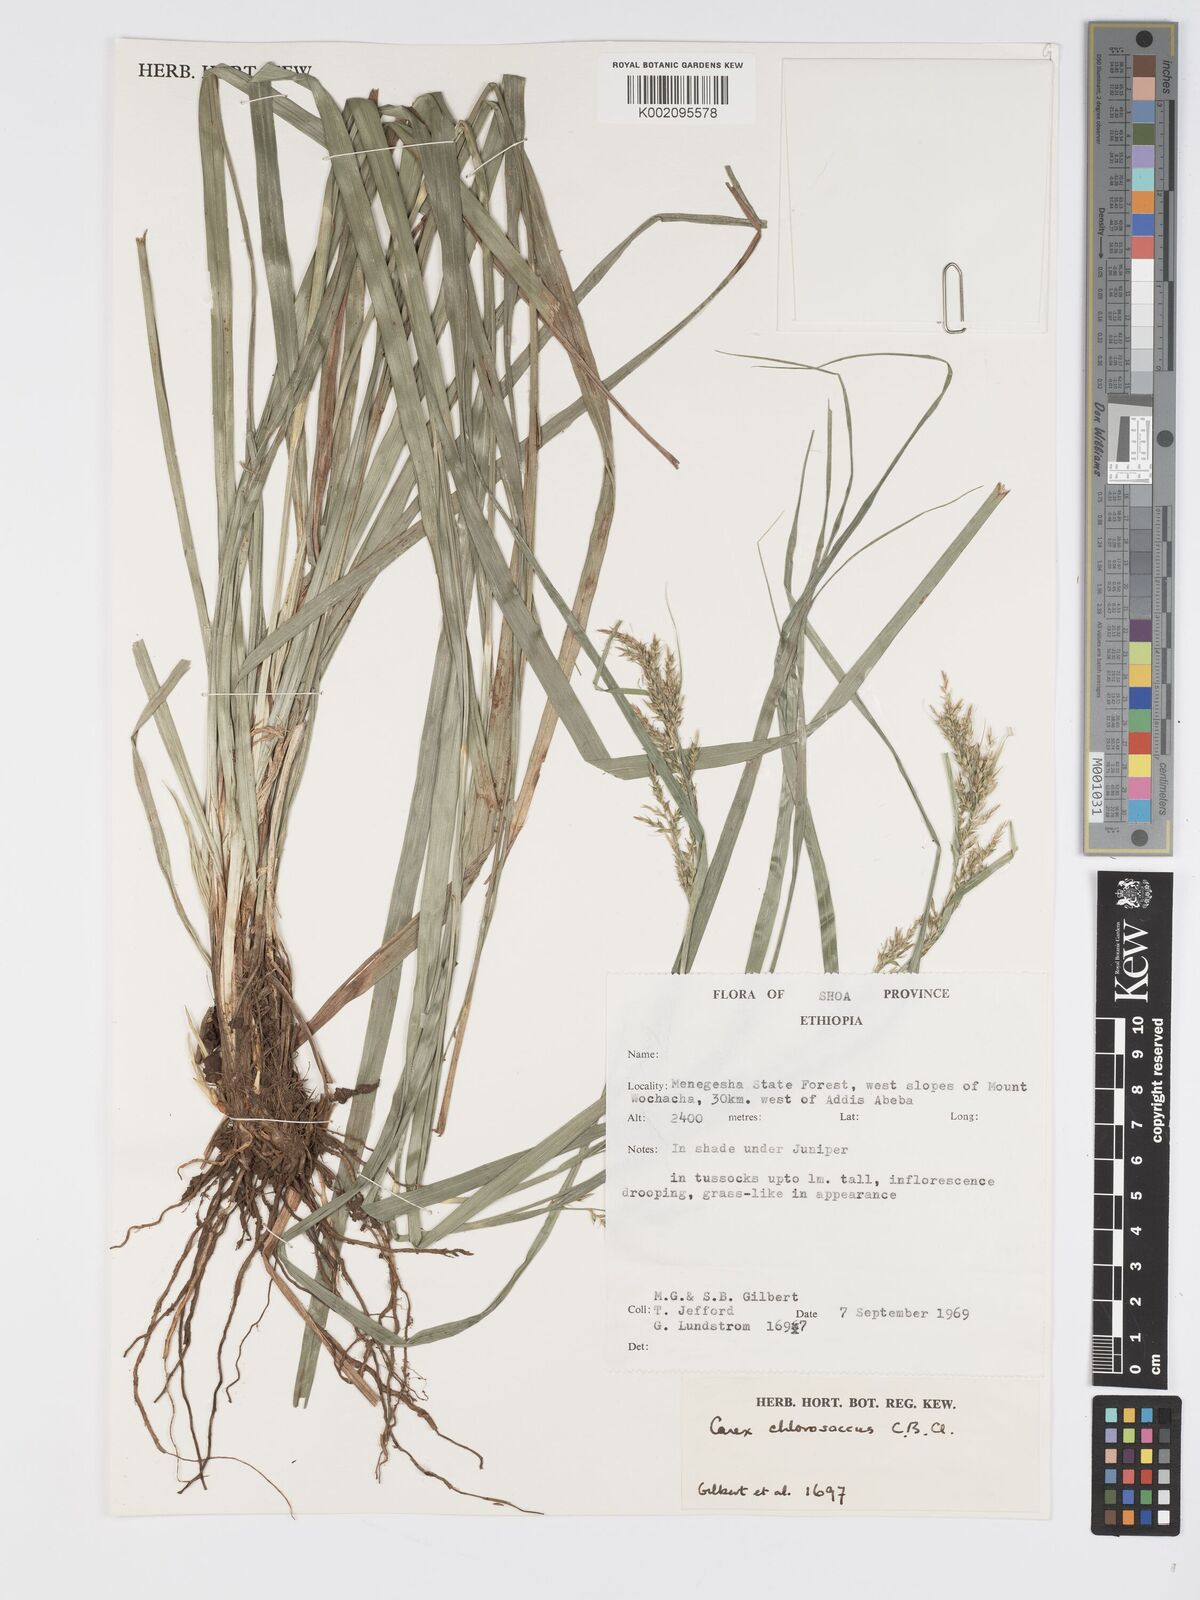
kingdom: Plantae
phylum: Tracheophyta
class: Liliopsida
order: Poales
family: Cyperaceae
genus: Carex
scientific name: Carex chlorosaccus
